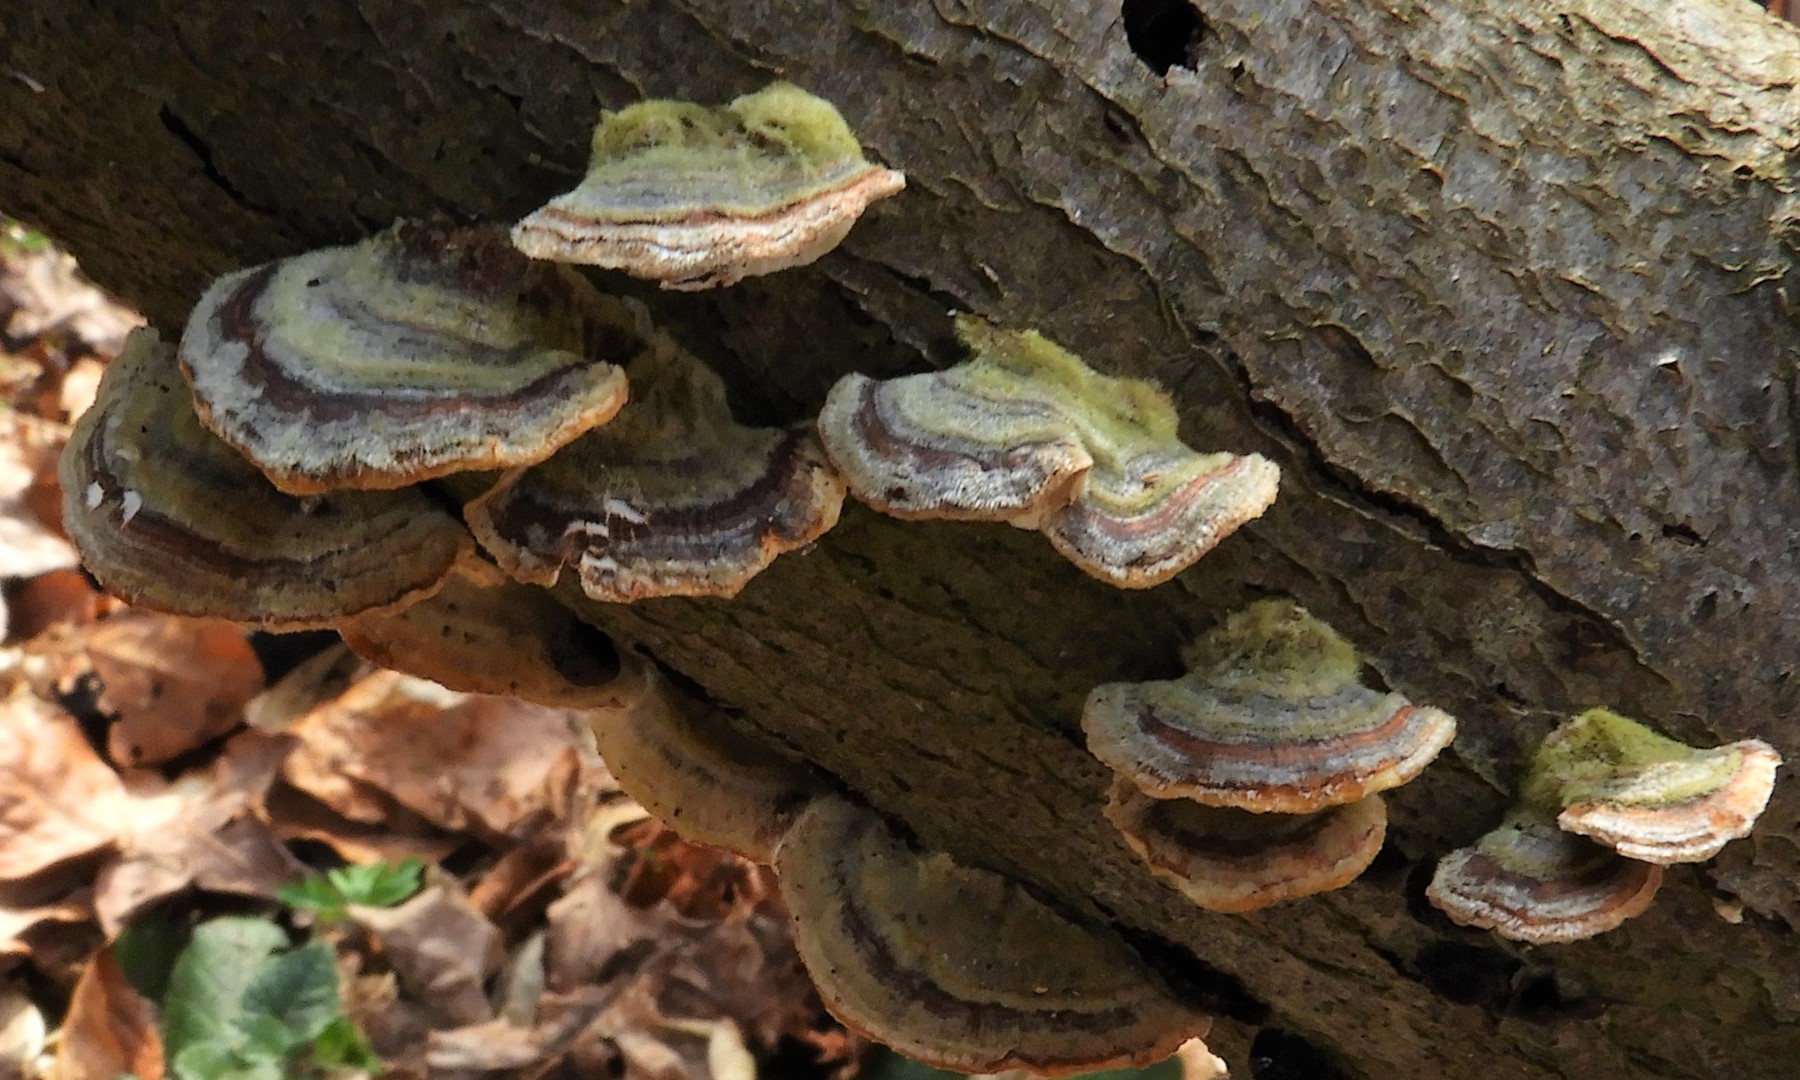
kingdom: Fungi
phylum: Basidiomycota
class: Agaricomycetes
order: Polyporales
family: Polyporaceae
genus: Trametes
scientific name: Trametes hirsuta
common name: håret læderporesvamp
